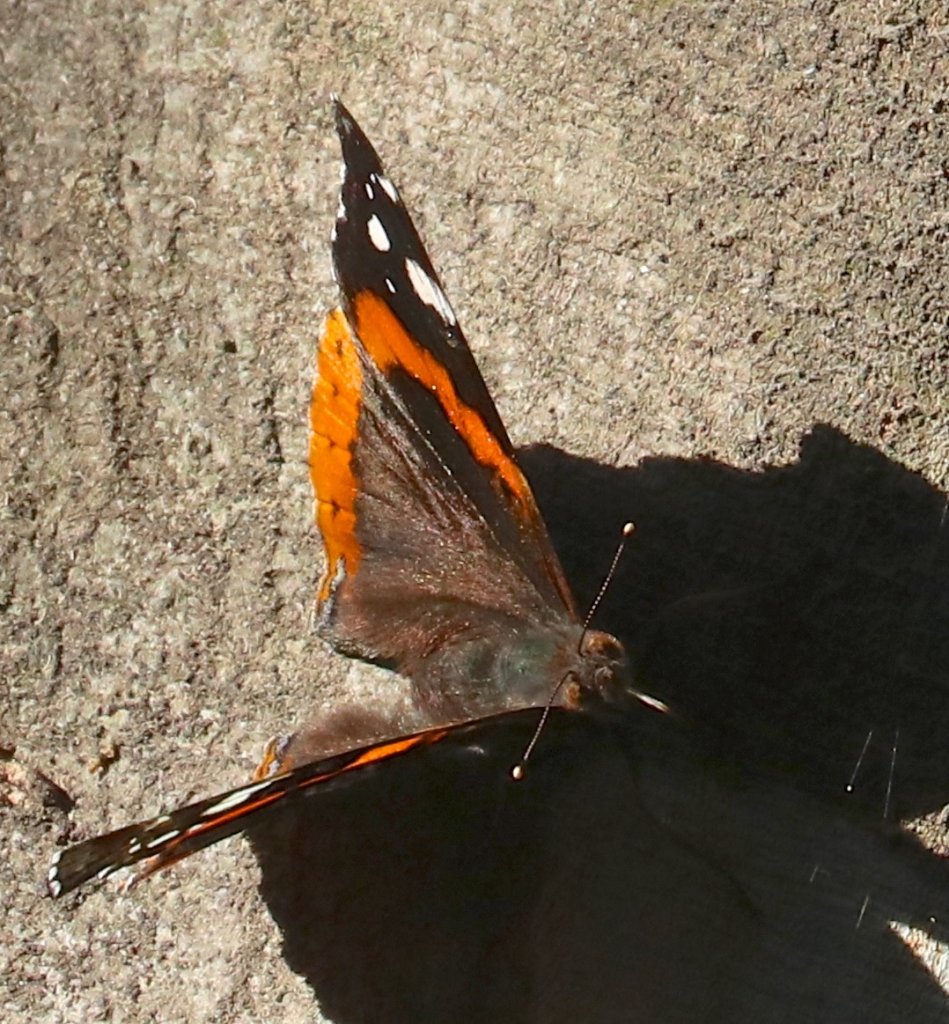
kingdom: Animalia
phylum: Arthropoda
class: Insecta
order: Lepidoptera
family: Nymphalidae
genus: Vanessa
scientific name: Vanessa atalanta
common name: Red Admiral
